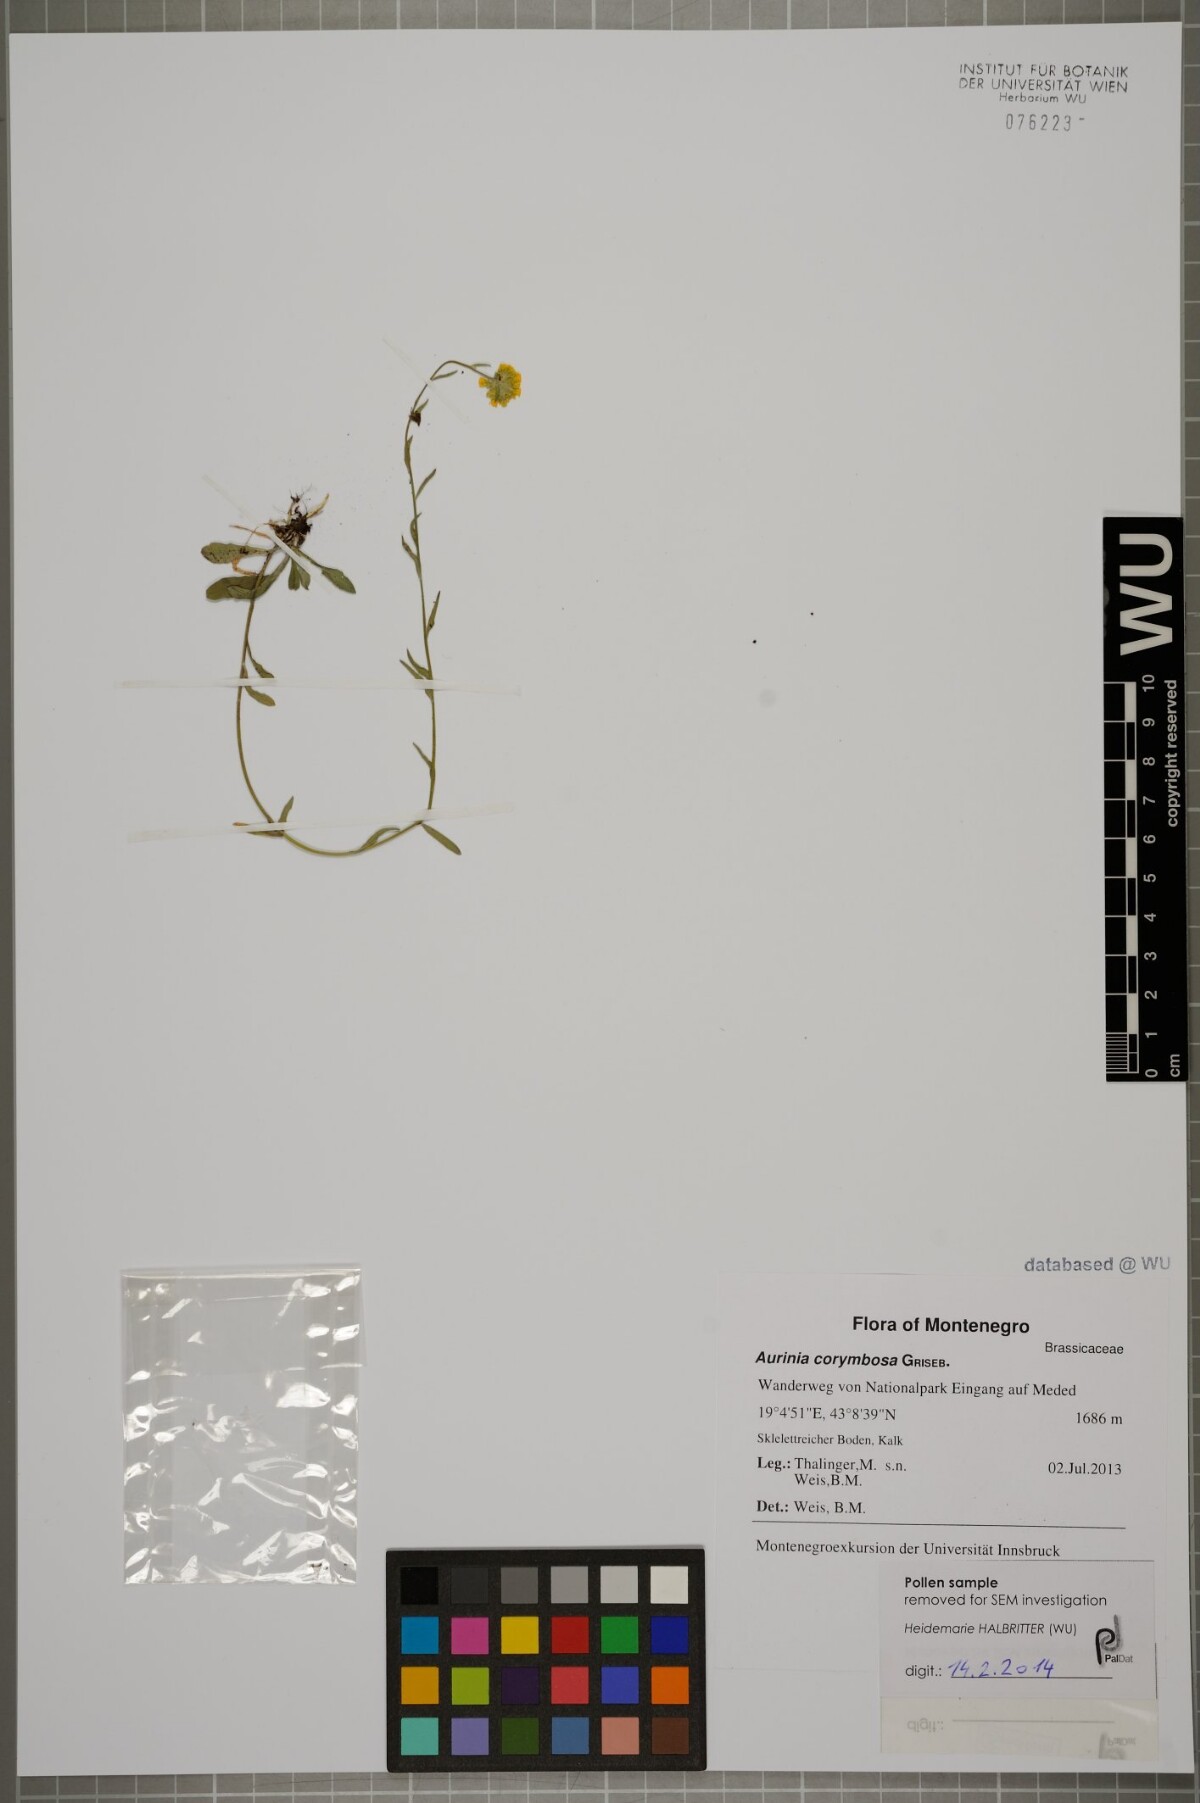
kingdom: Plantae
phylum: Tracheophyta
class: Magnoliopsida
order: Brassicales
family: Brassicaceae
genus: Aurinia
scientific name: Aurinia corymbosa
